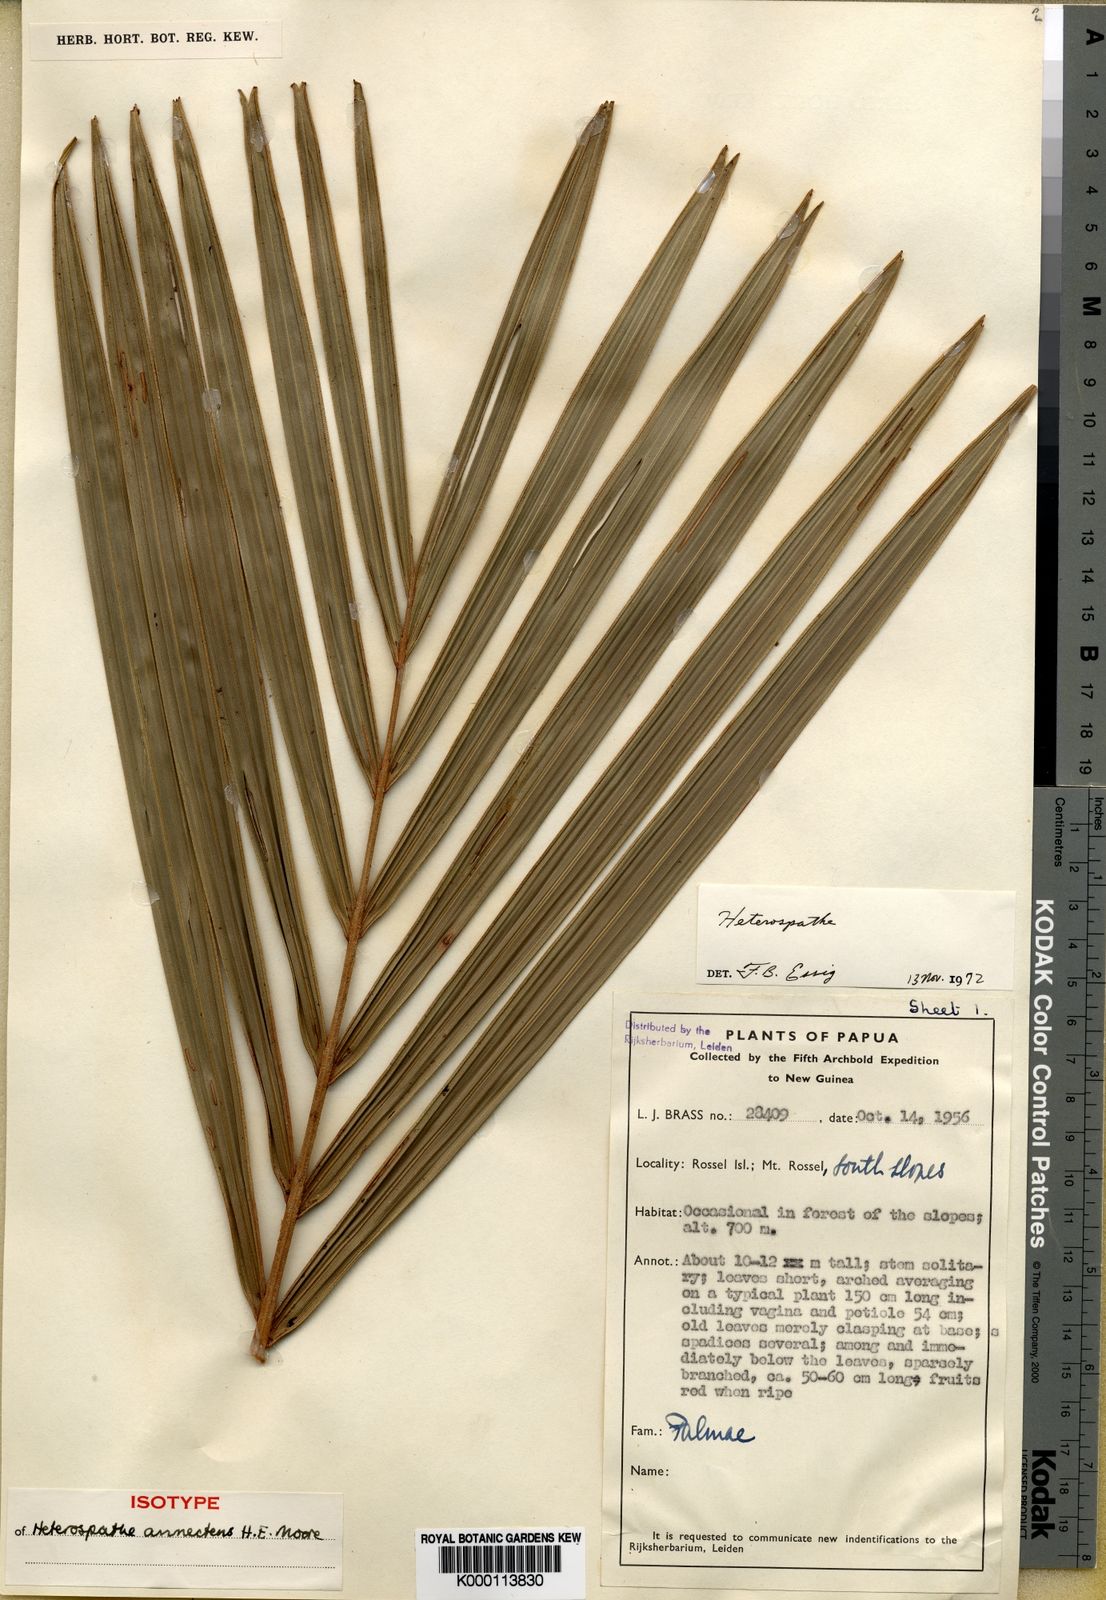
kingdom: Plantae
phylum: Tracheophyta
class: Liliopsida
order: Arecales
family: Arecaceae
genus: Heterospathe
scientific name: Heterospathe annectens
